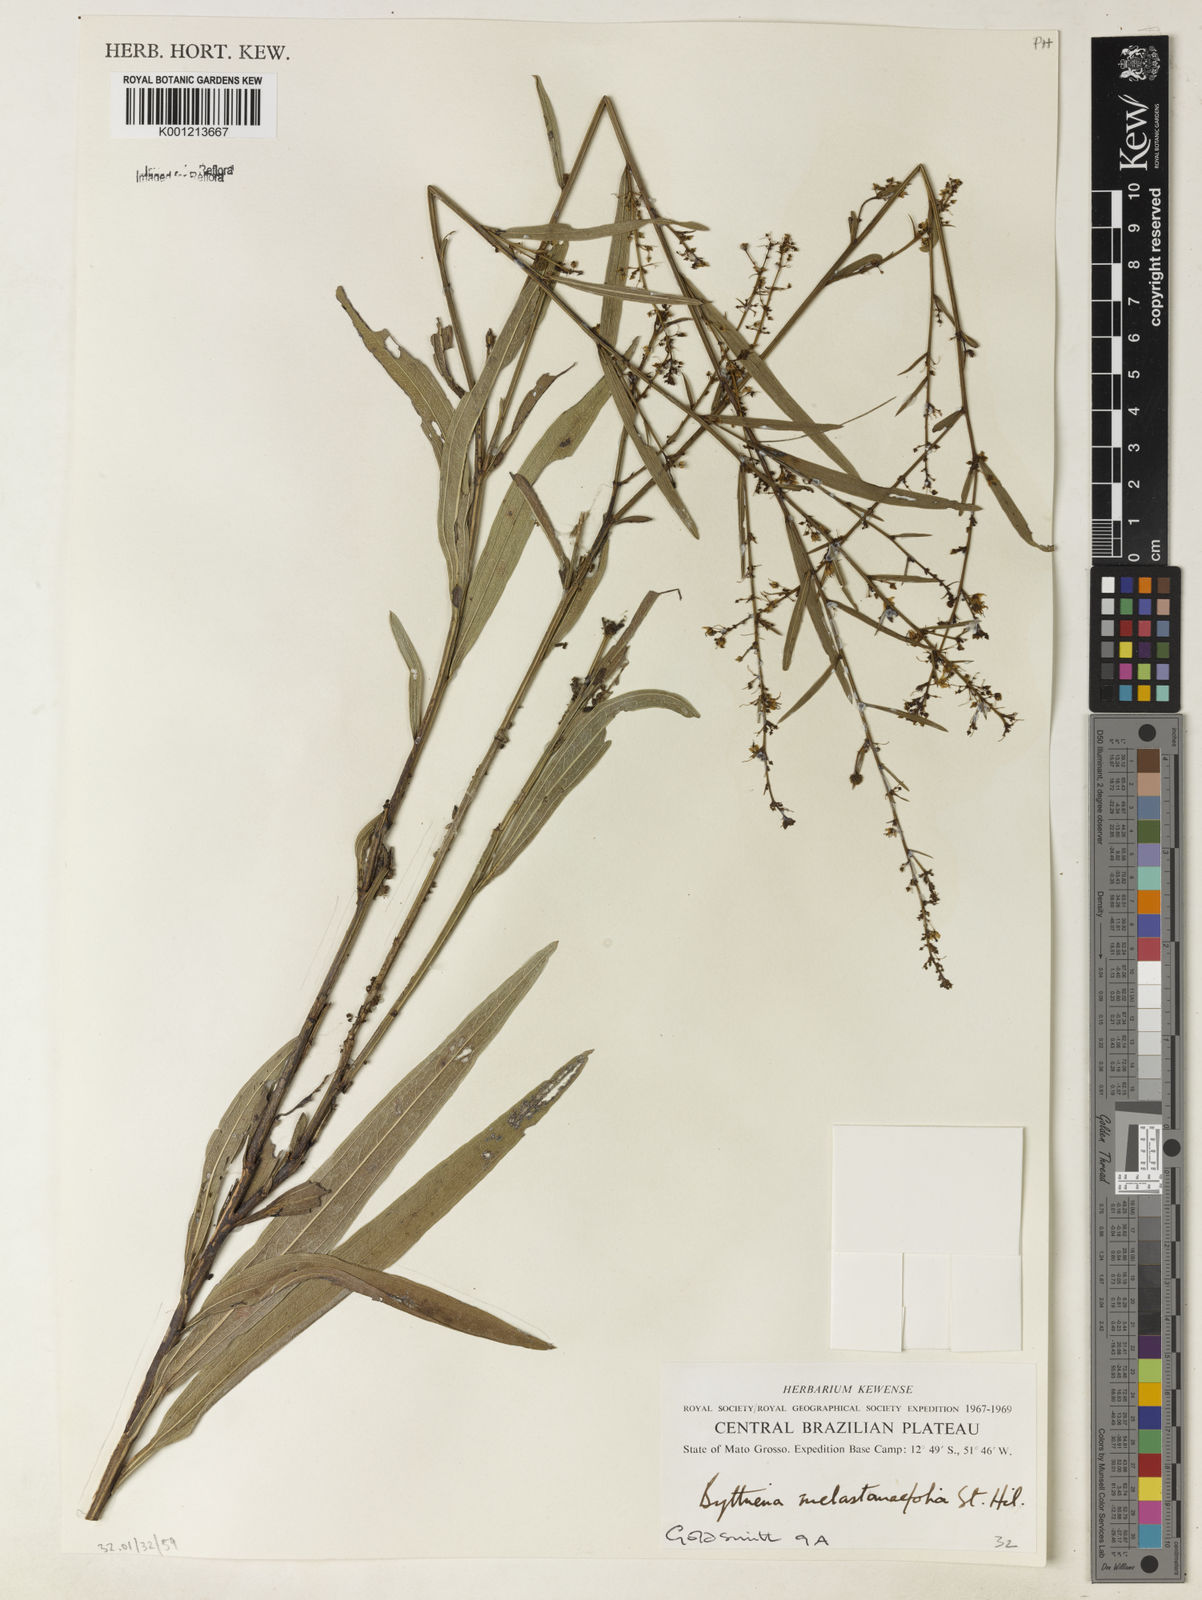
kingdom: Plantae
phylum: Tracheophyta
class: Magnoliopsida
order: Malvales
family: Malvaceae
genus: Byttneria
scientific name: Byttneria melastomifolia
